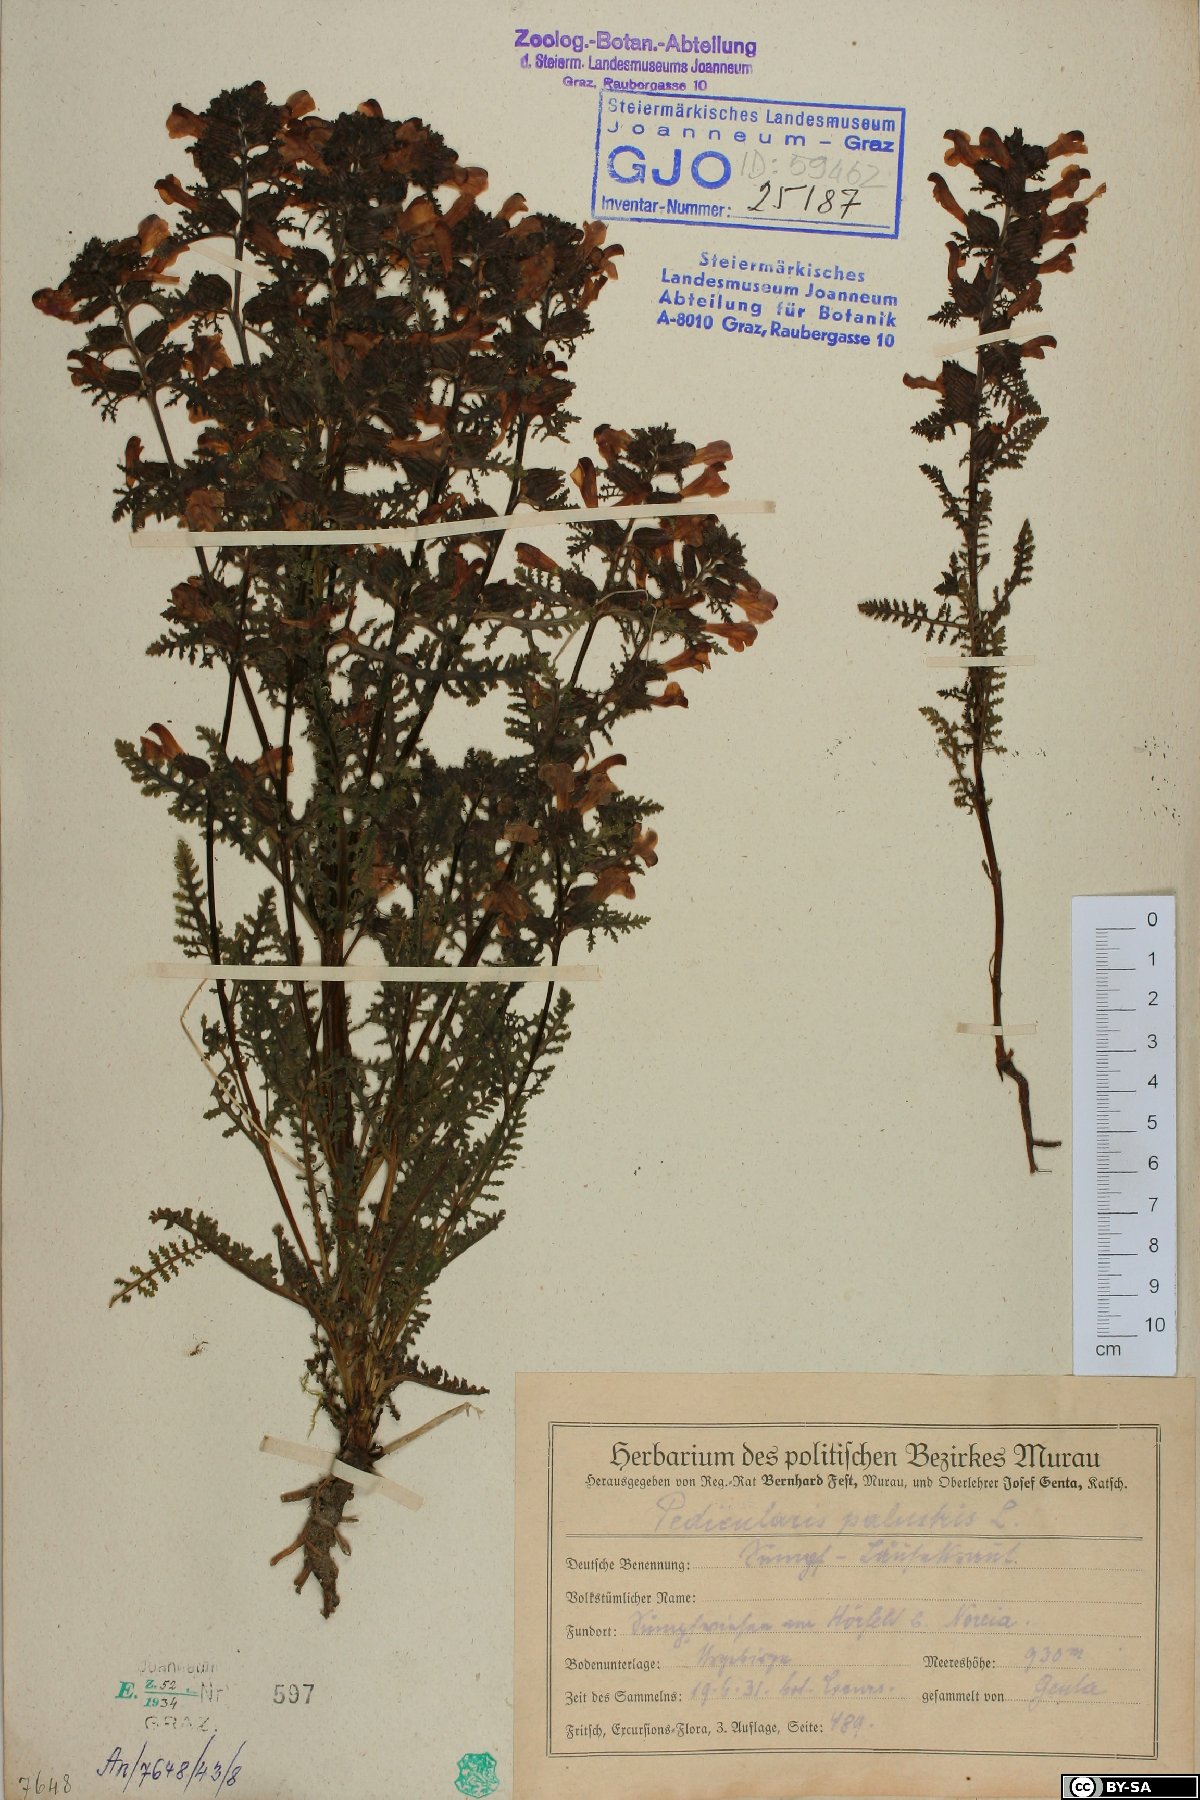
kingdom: Plantae
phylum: Tracheophyta
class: Magnoliopsida
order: Lamiales
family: Orobanchaceae
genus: Pedicularis
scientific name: Pedicularis palustris
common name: Marsh lousewort
